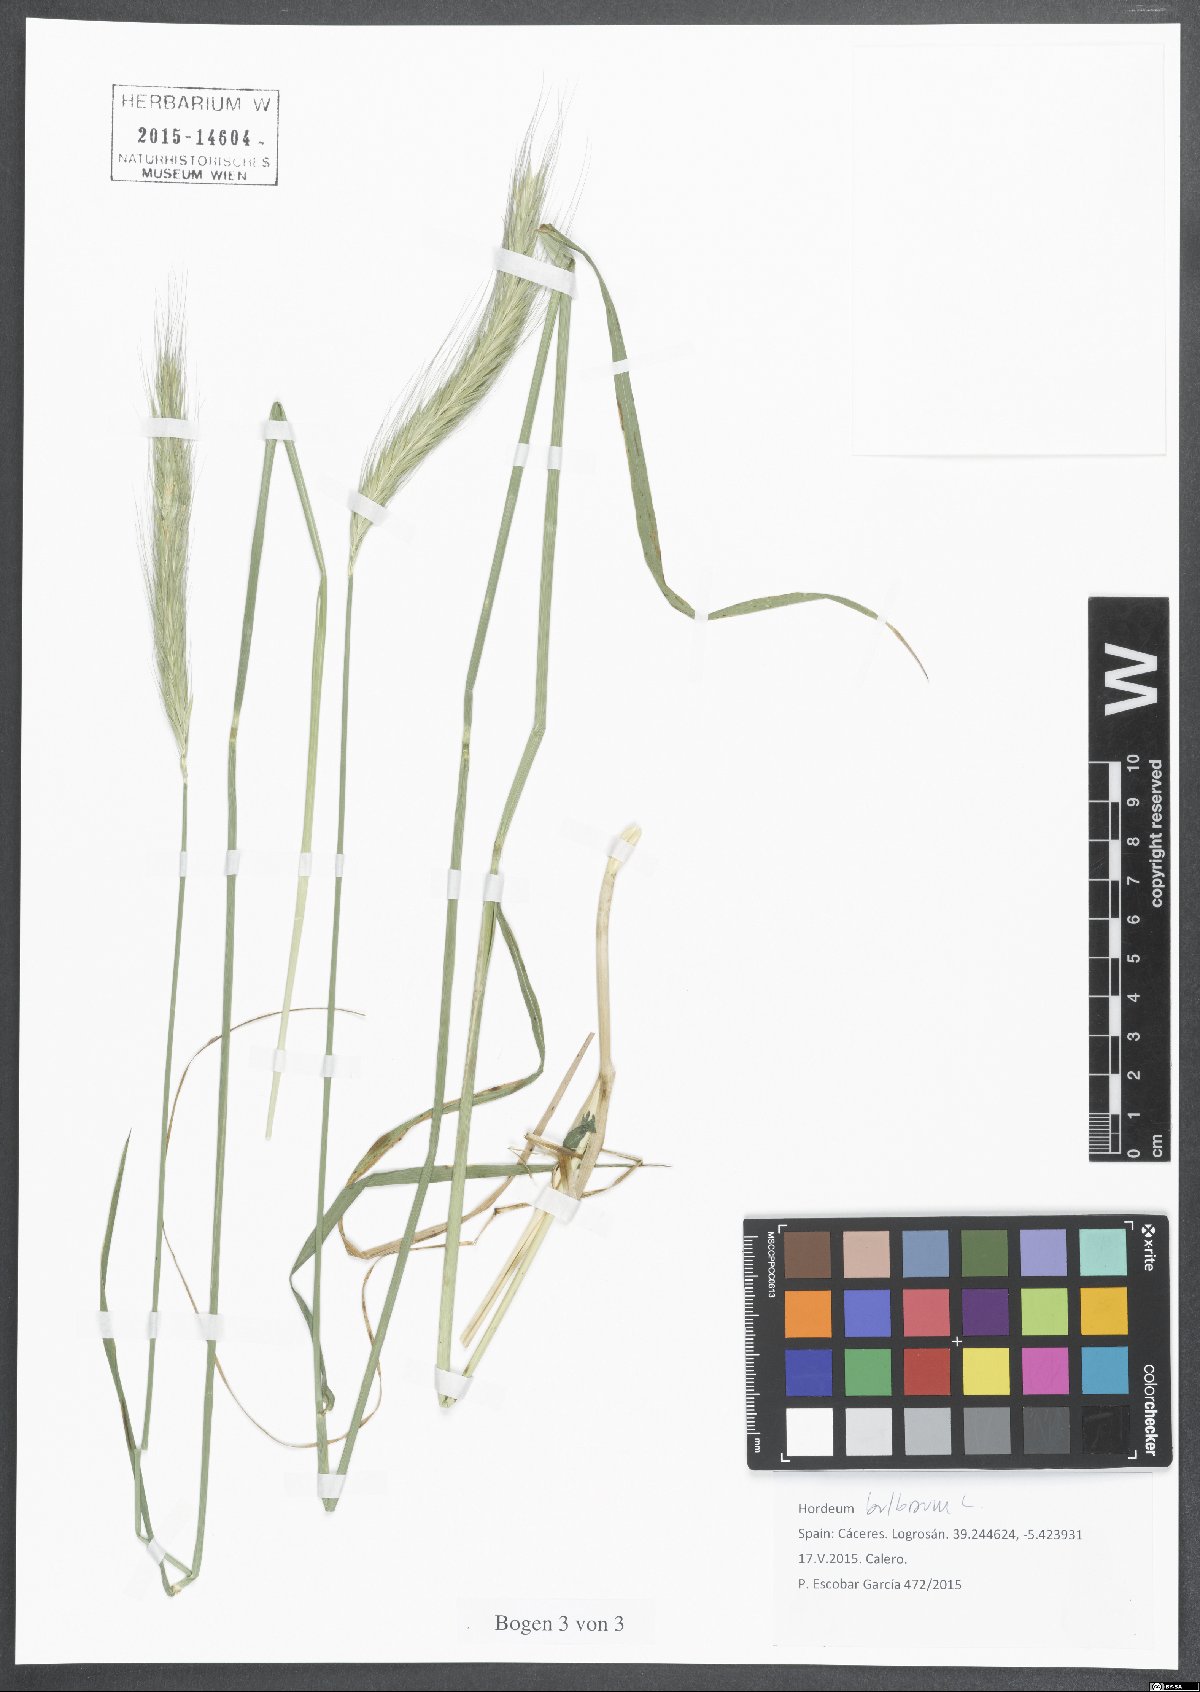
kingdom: Plantae
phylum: Tracheophyta
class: Liliopsida
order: Poales
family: Poaceae
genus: Hordeum
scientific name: Hordeum bulbosum
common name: Bulbous barley
